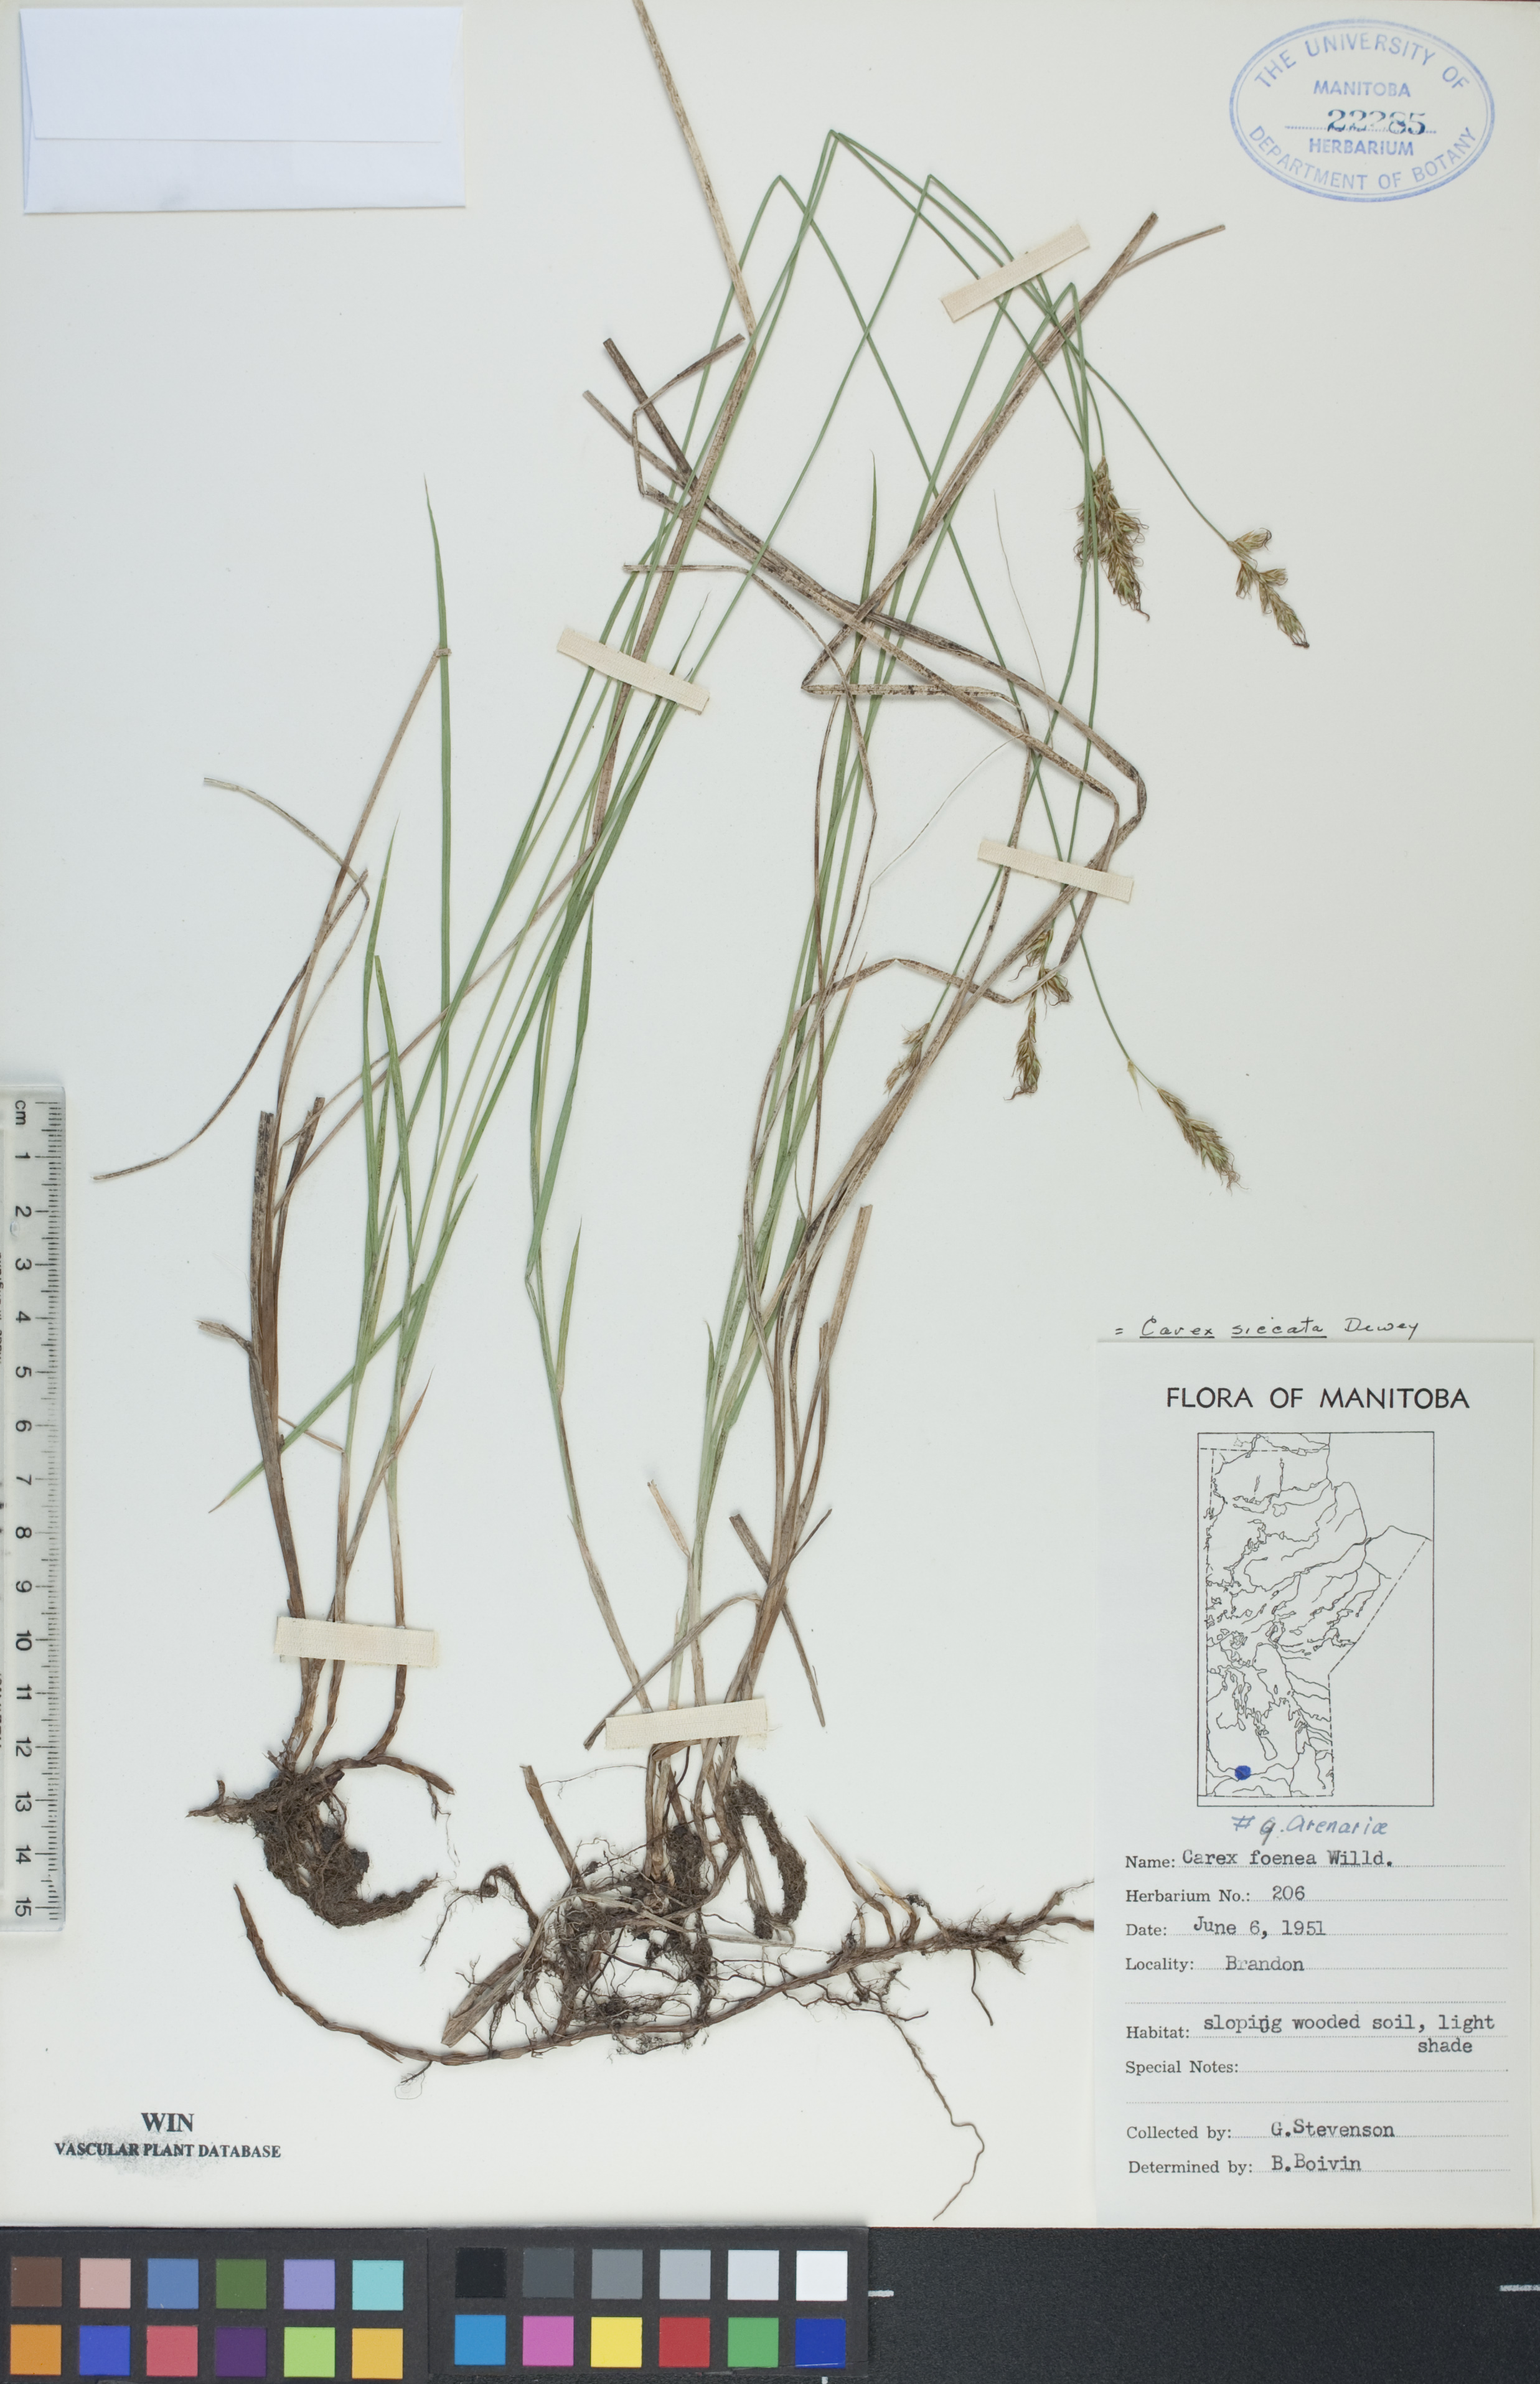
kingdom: Plantae
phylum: Tracheophyta
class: Liliopsida
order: Poales
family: Cyperaceae
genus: Carex
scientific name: Carex siccata
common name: Dry sedge
